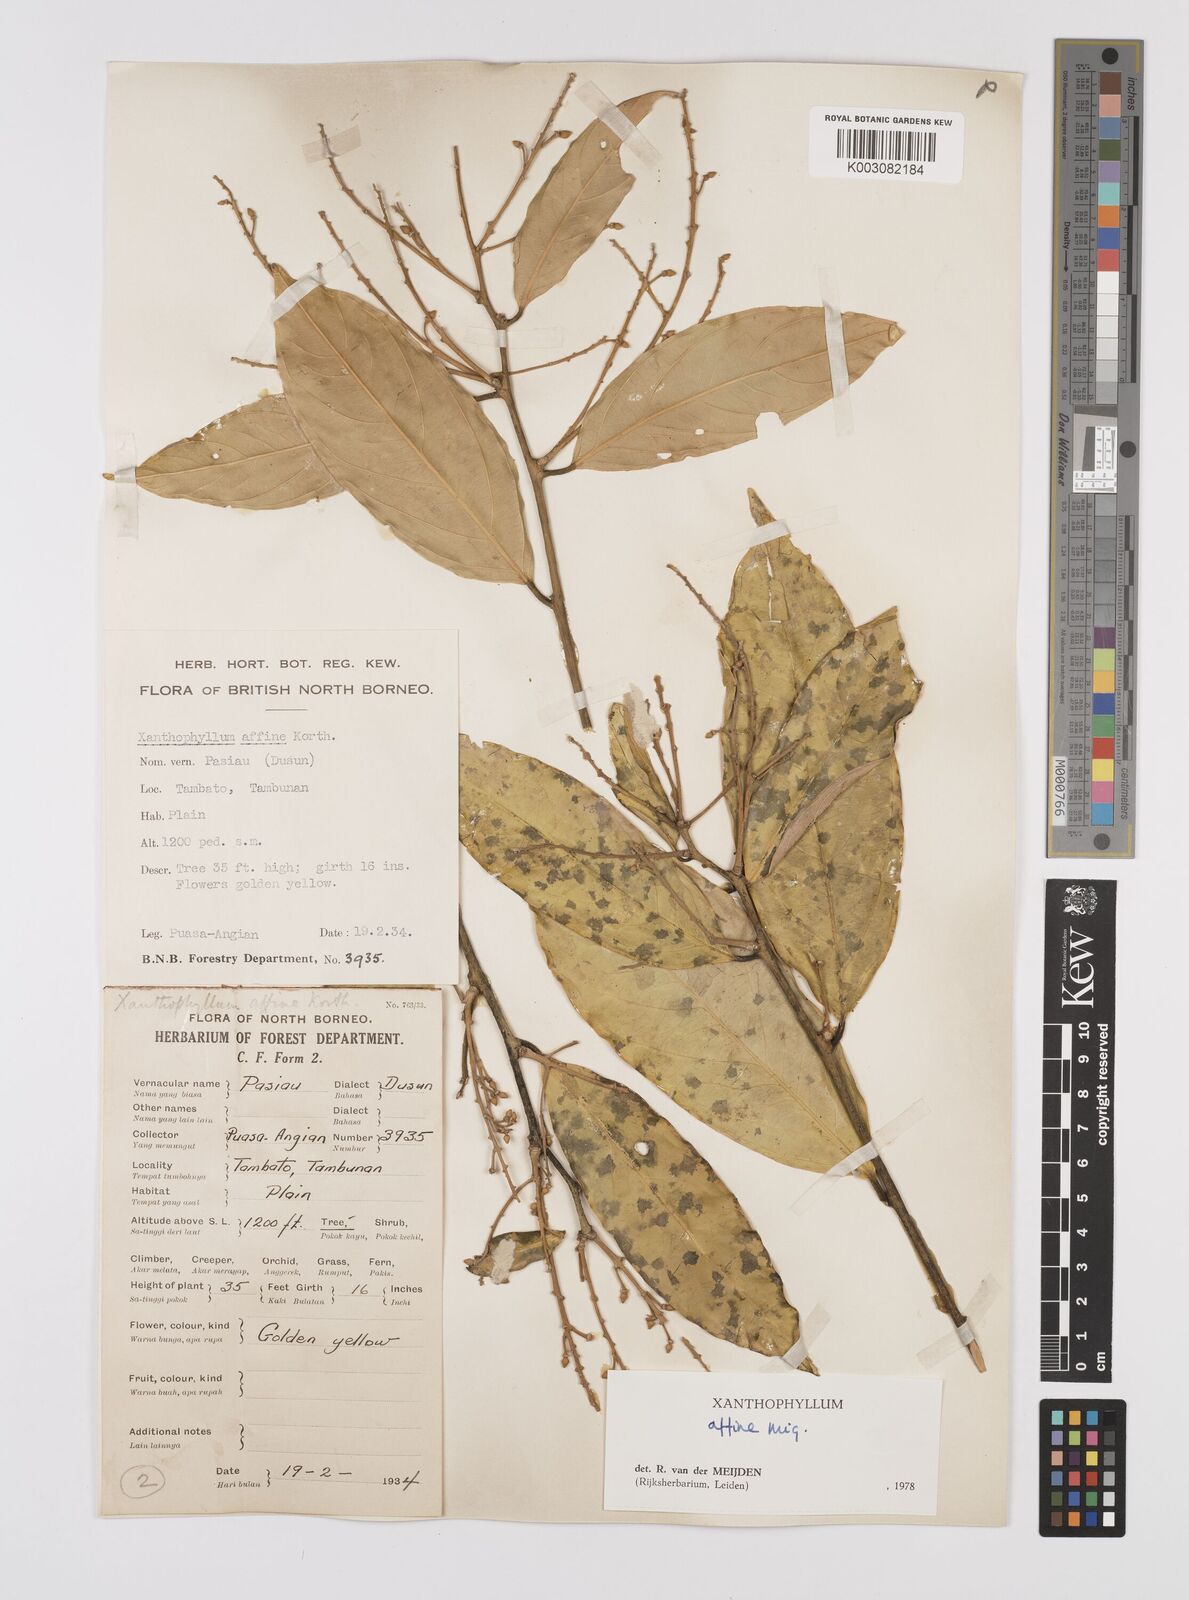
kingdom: Plantae
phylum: Tracheophyta
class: Magnoliopsida
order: Fabales
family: Polygalaceae
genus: Xanthophyllum
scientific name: Xanthophyllum flavescens
